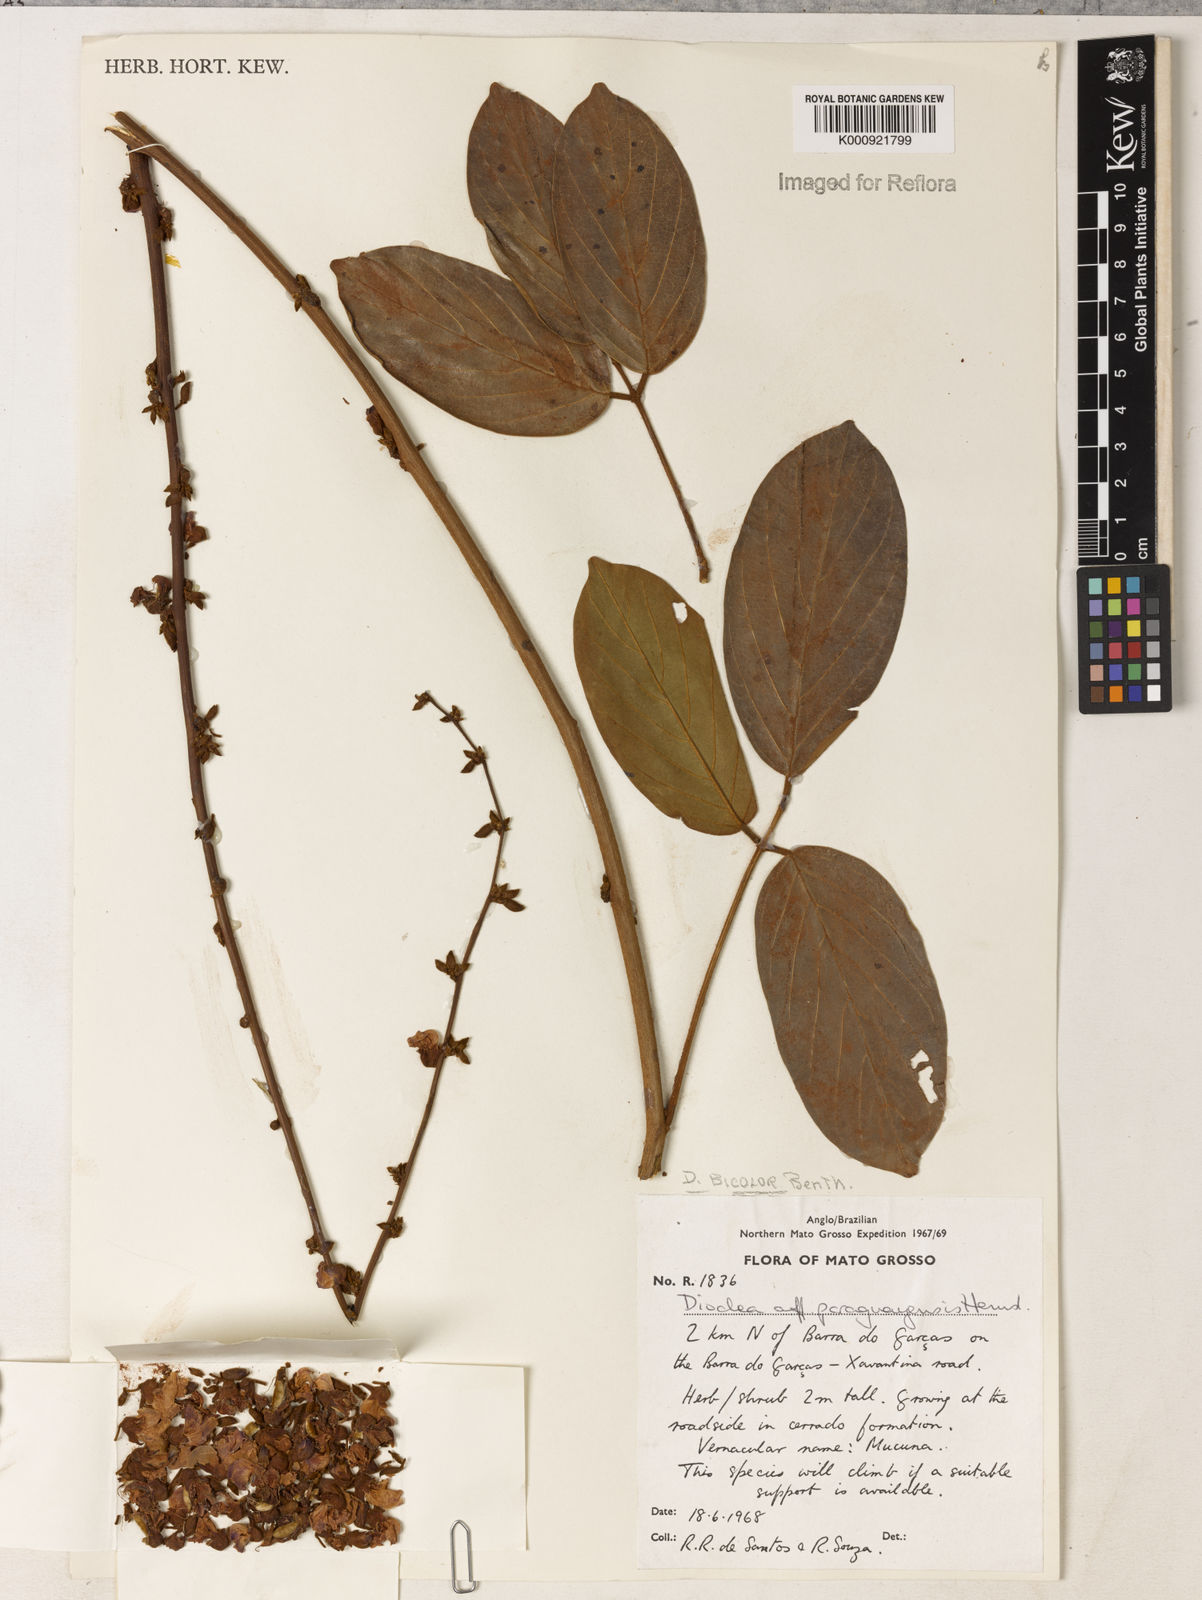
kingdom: Plantae
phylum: Tracheophyta
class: Magnoliopsida
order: Fabales
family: Fabaceae
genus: Macropsychanthus
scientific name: Macropsychanthus bicolor
